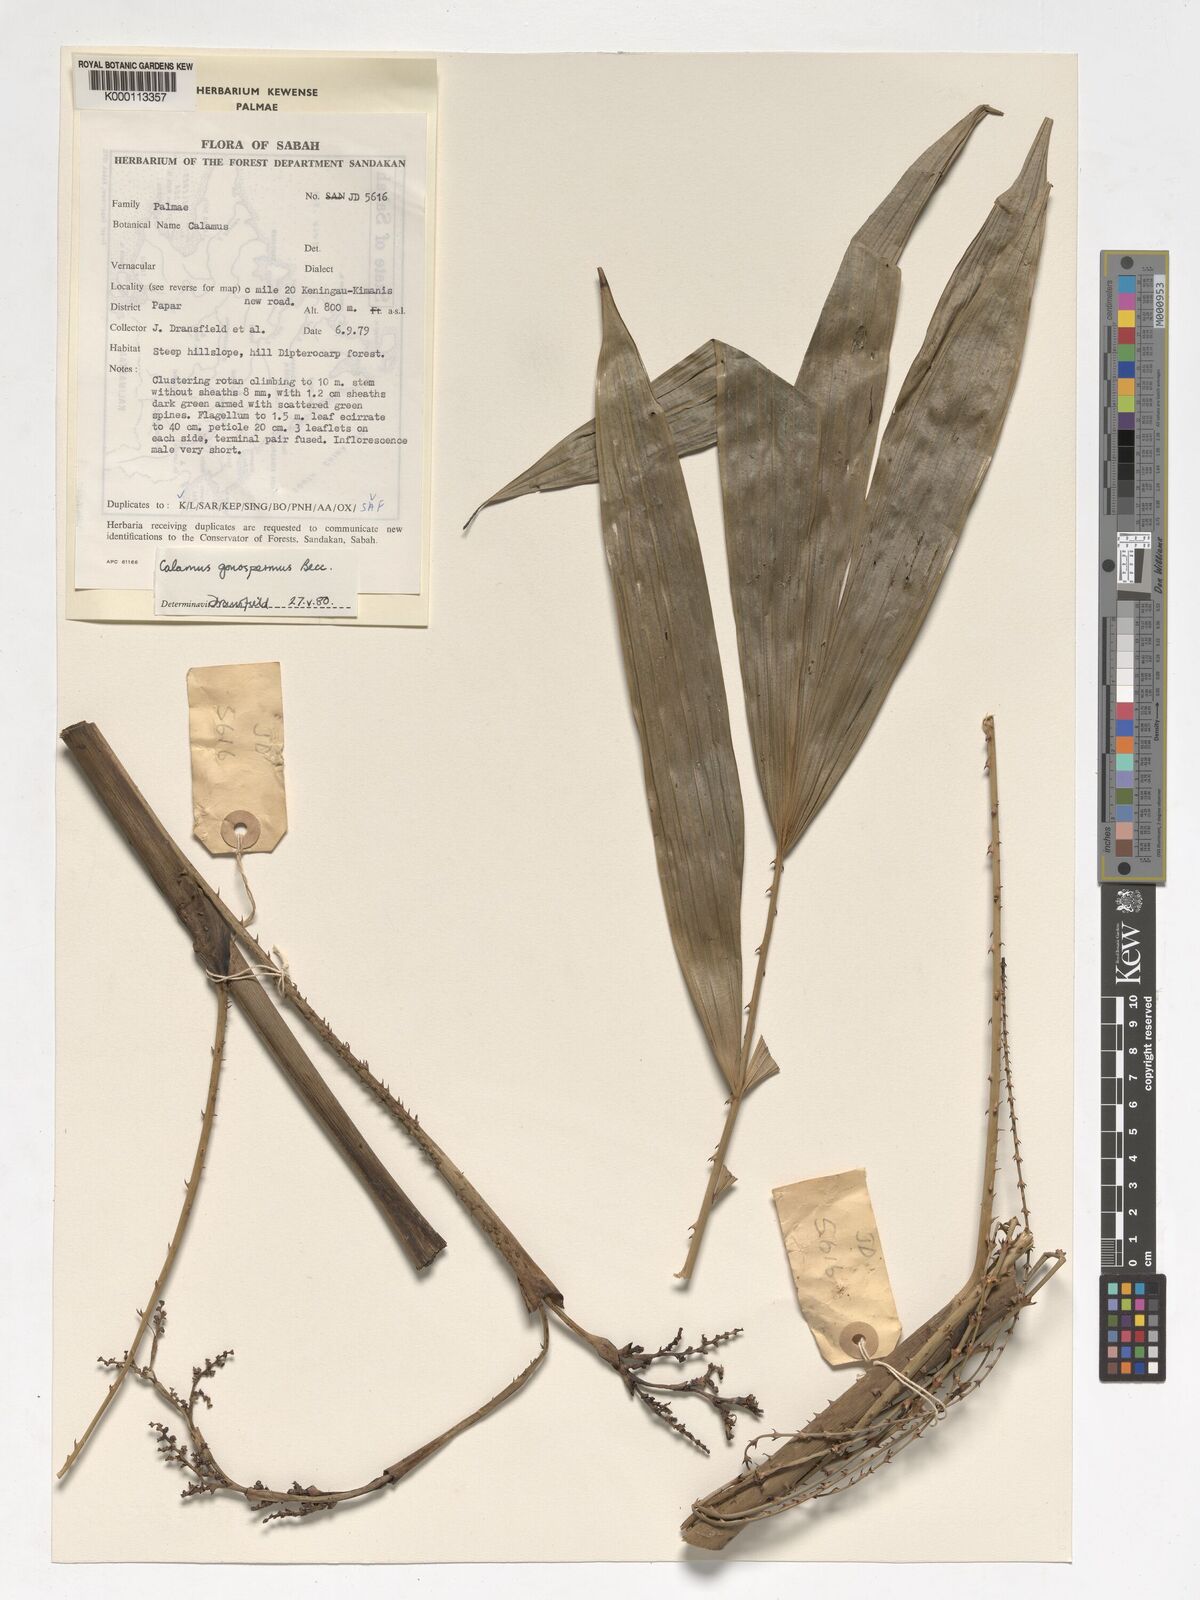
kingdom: Plantae
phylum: Tracheophyta
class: Liliopsida
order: Arecales
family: Arecaceae
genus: Calamus
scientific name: Calamus gonospermus
